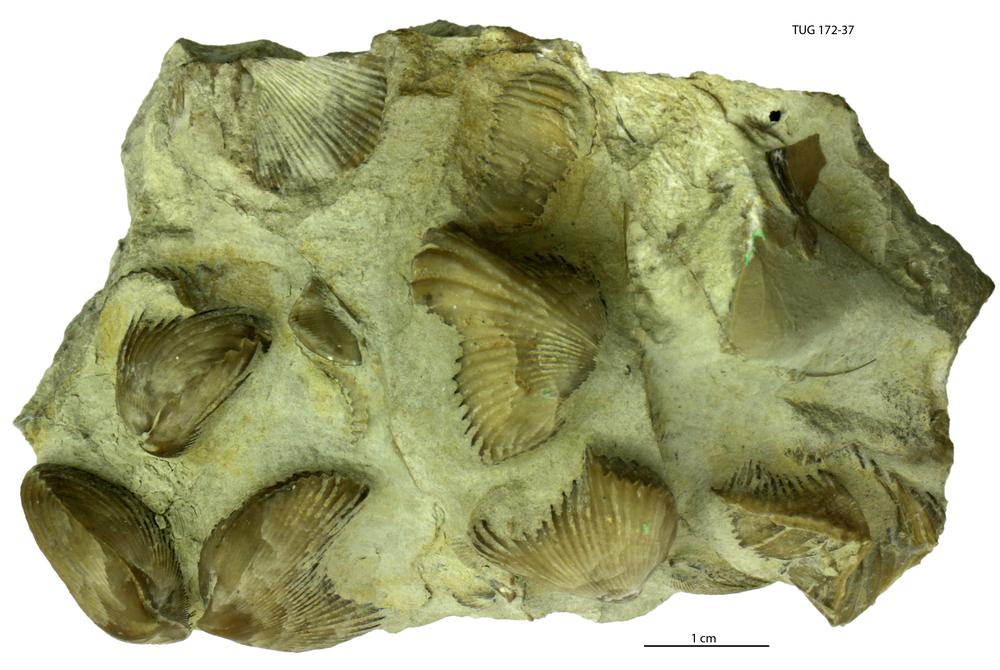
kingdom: Animalia
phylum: Brachiopoda
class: Rhynchonellata
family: Spiriferidae
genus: Spirifer
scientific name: Spirifer
